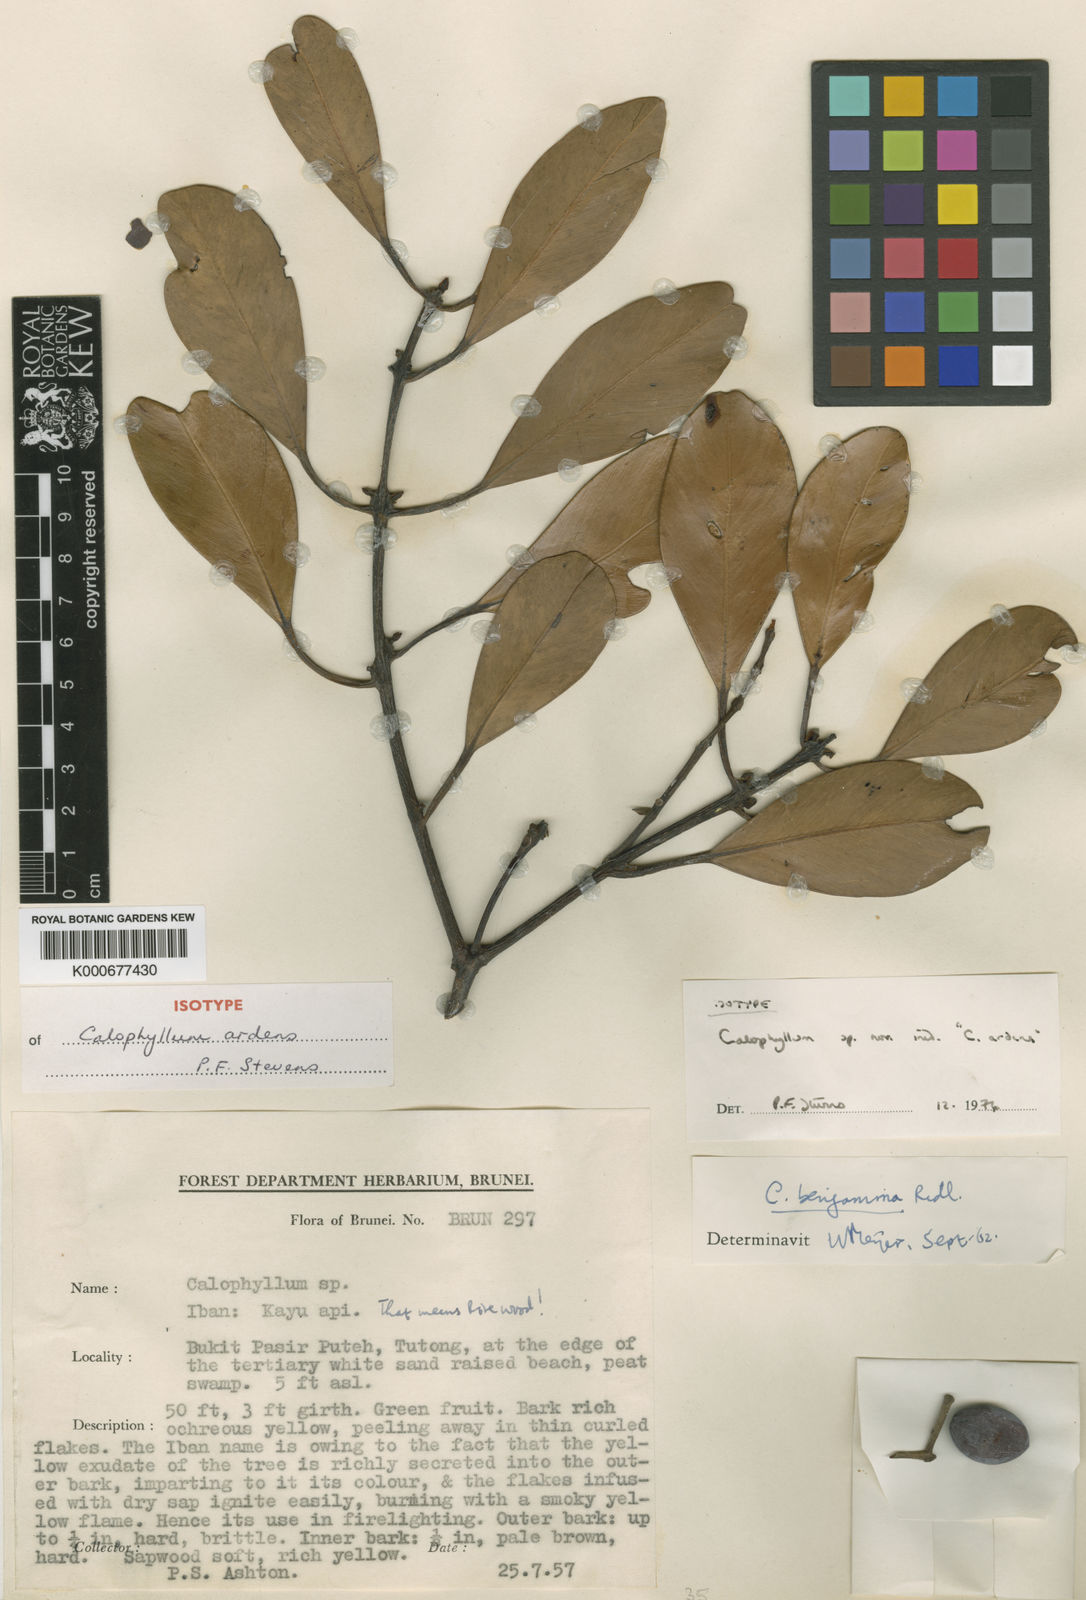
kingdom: Plantae
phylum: Tracheophyta
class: Magnoliopsida
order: Malpighiales
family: Calophyllaceae
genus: Calophyllum
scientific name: Calophyllum ardens
